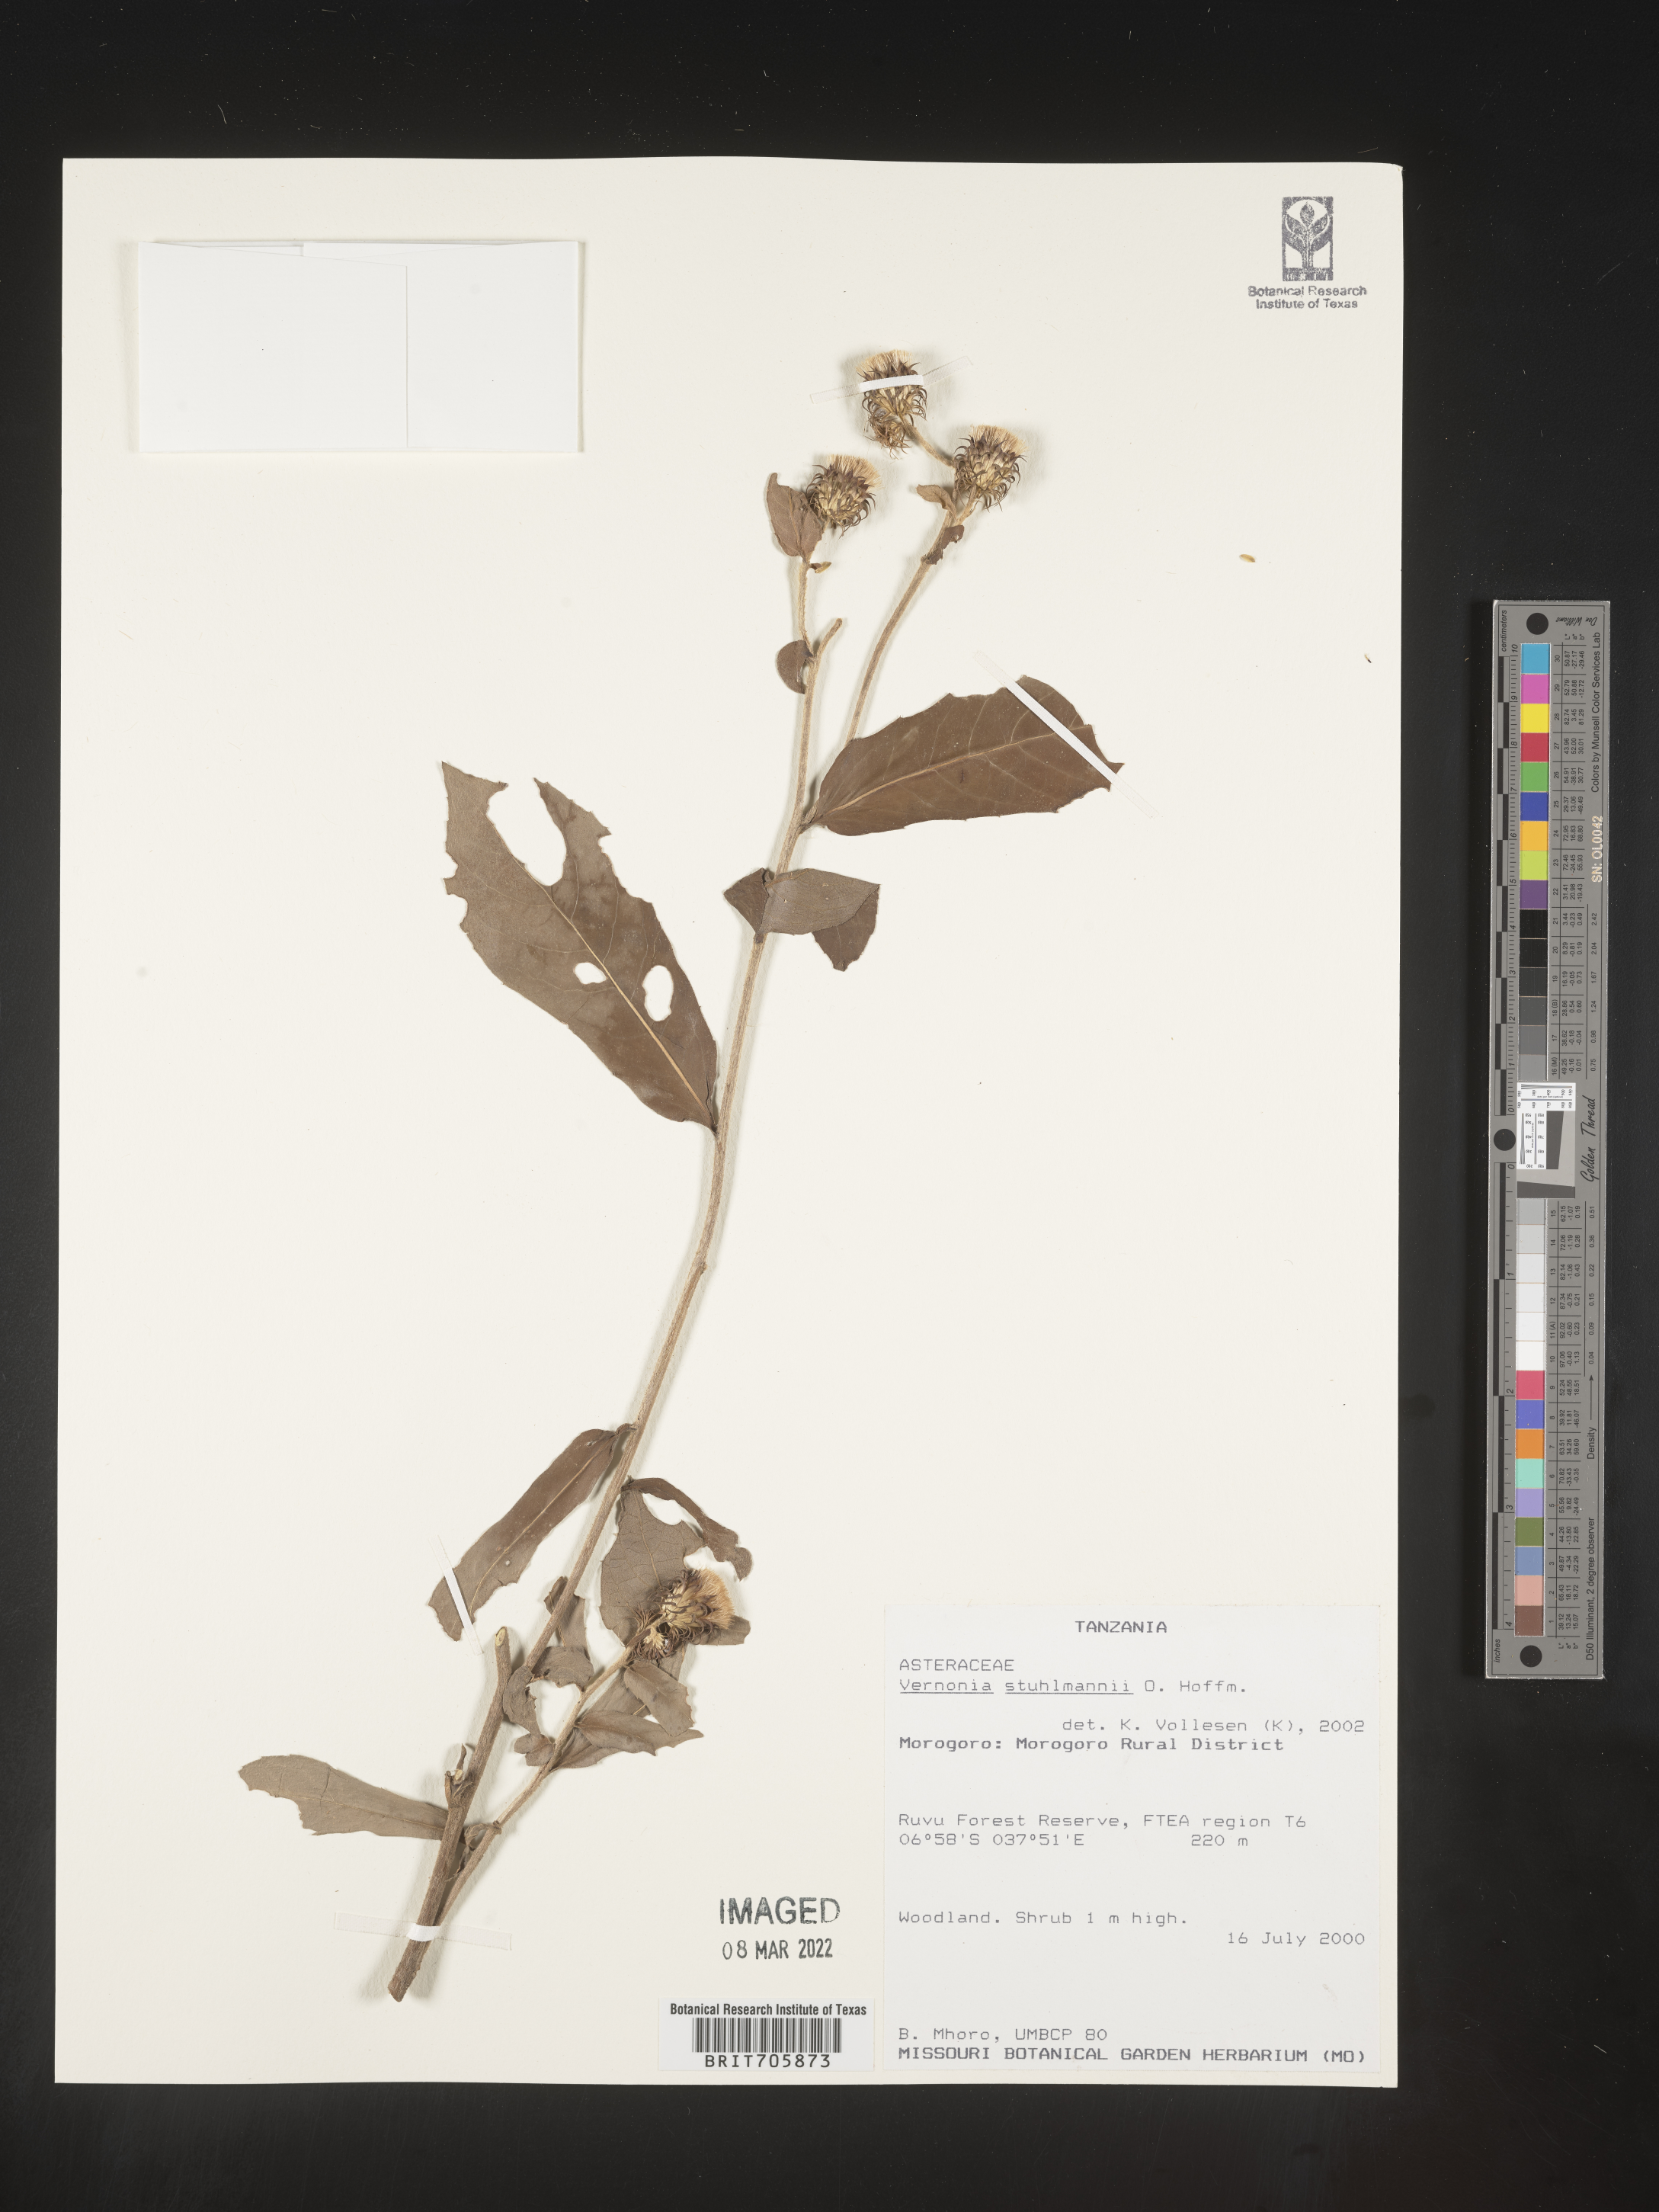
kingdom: Plantae
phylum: Tracheophyta
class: Magnoliopsida
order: Asterales
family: Asteraceae
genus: Vernonia
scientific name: Vernonia
